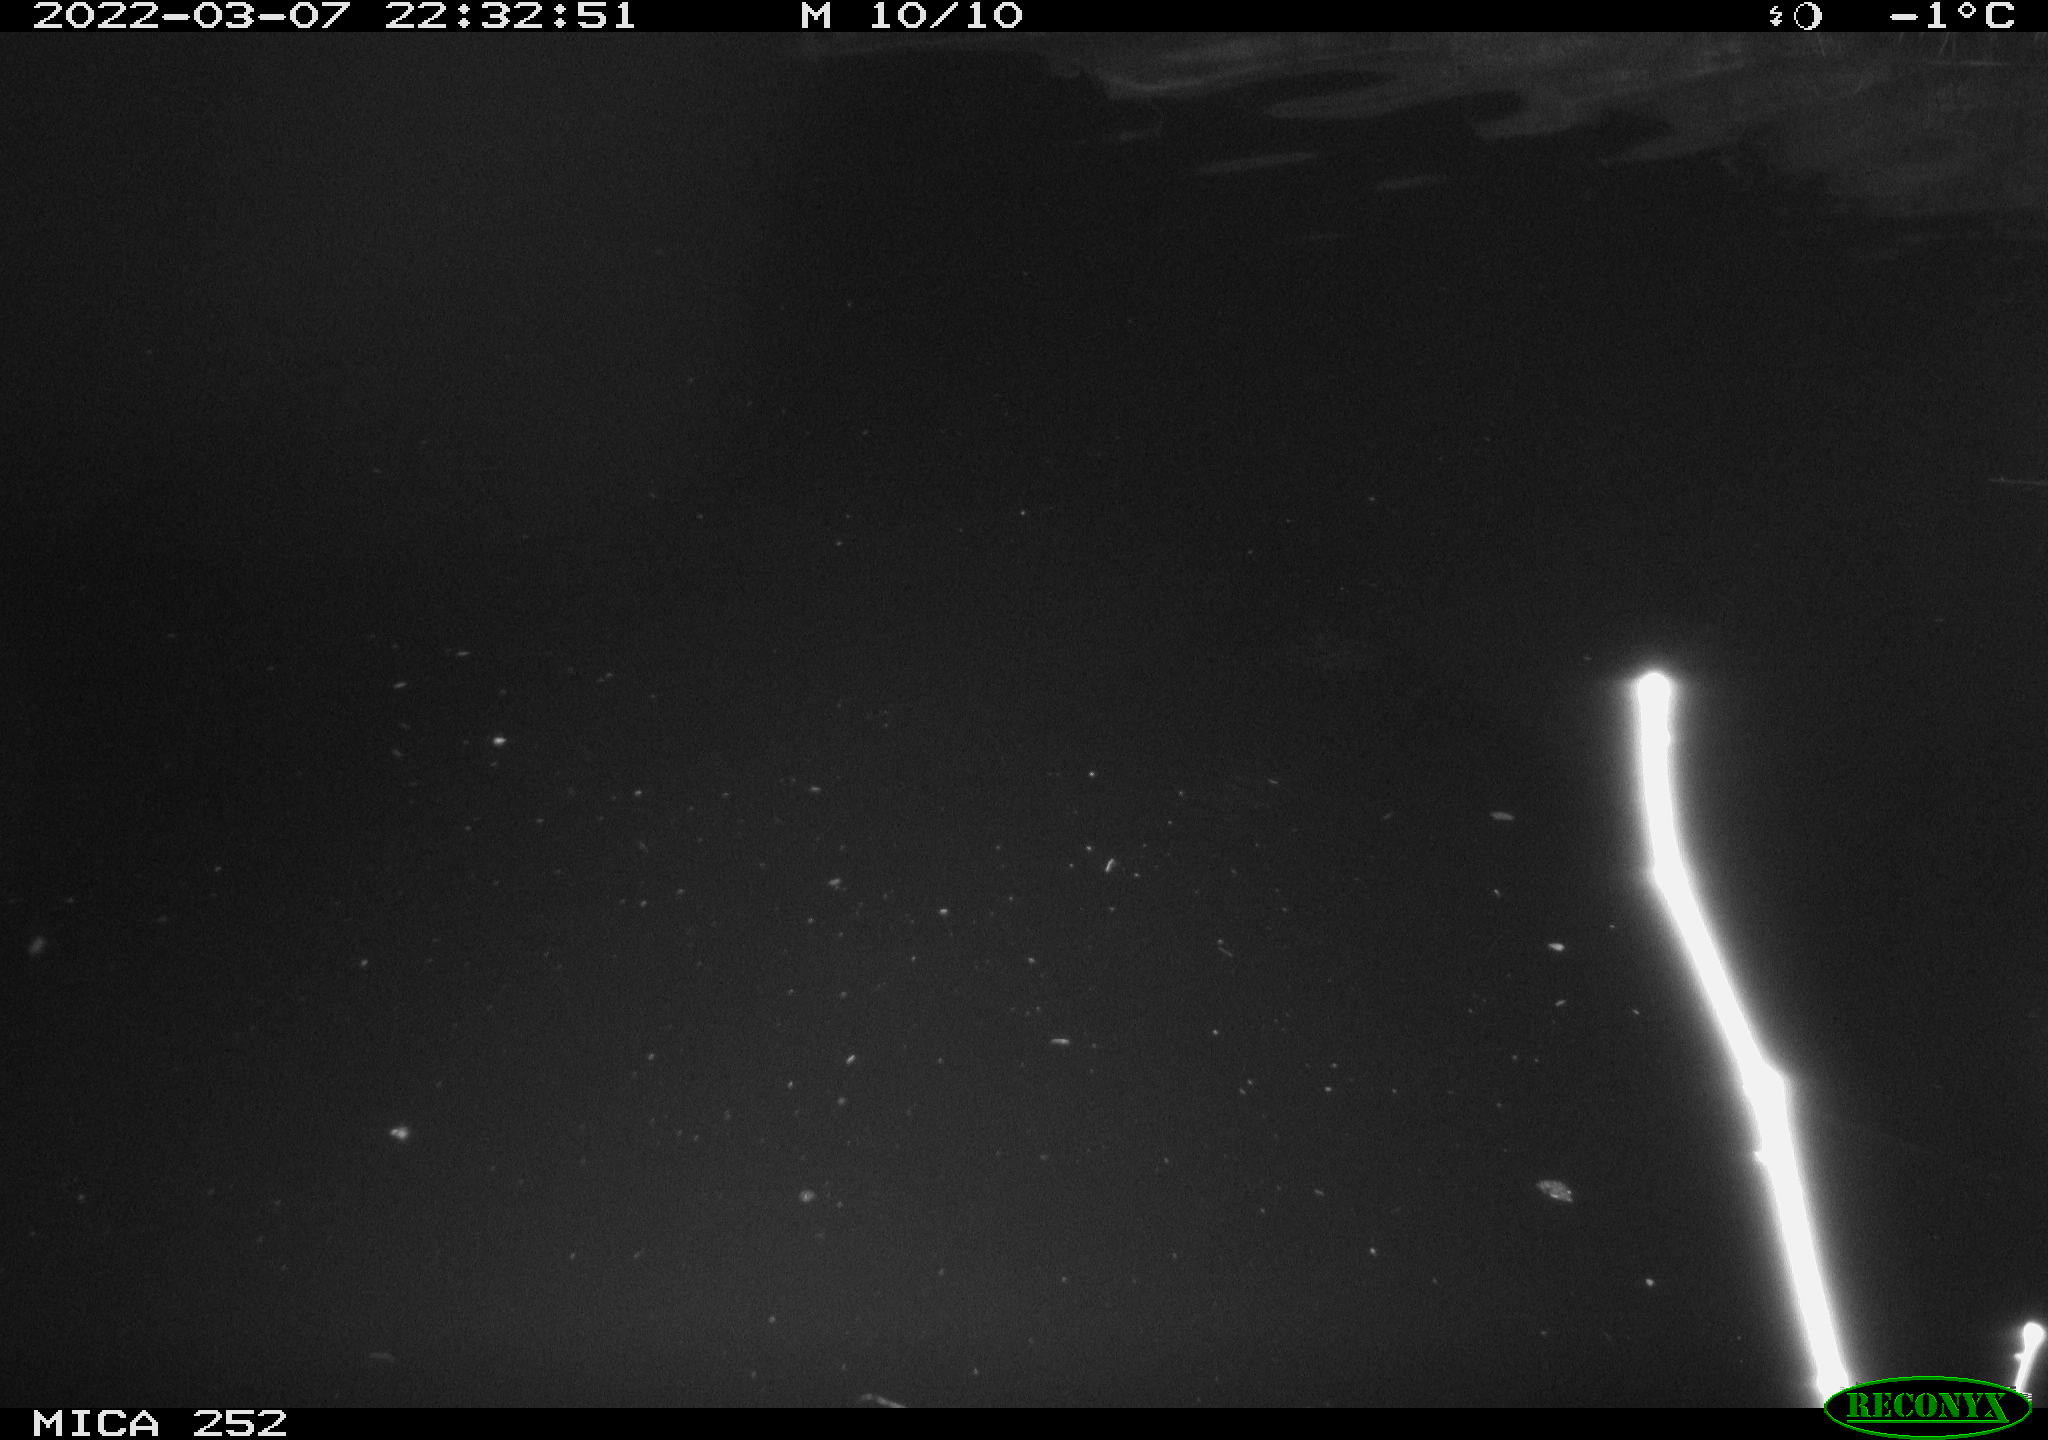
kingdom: Animalia
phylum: Chordata
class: Mammalia
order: Rodentia
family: Castoridae
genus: Castor
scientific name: Castor fiber
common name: Eurasian beaver
